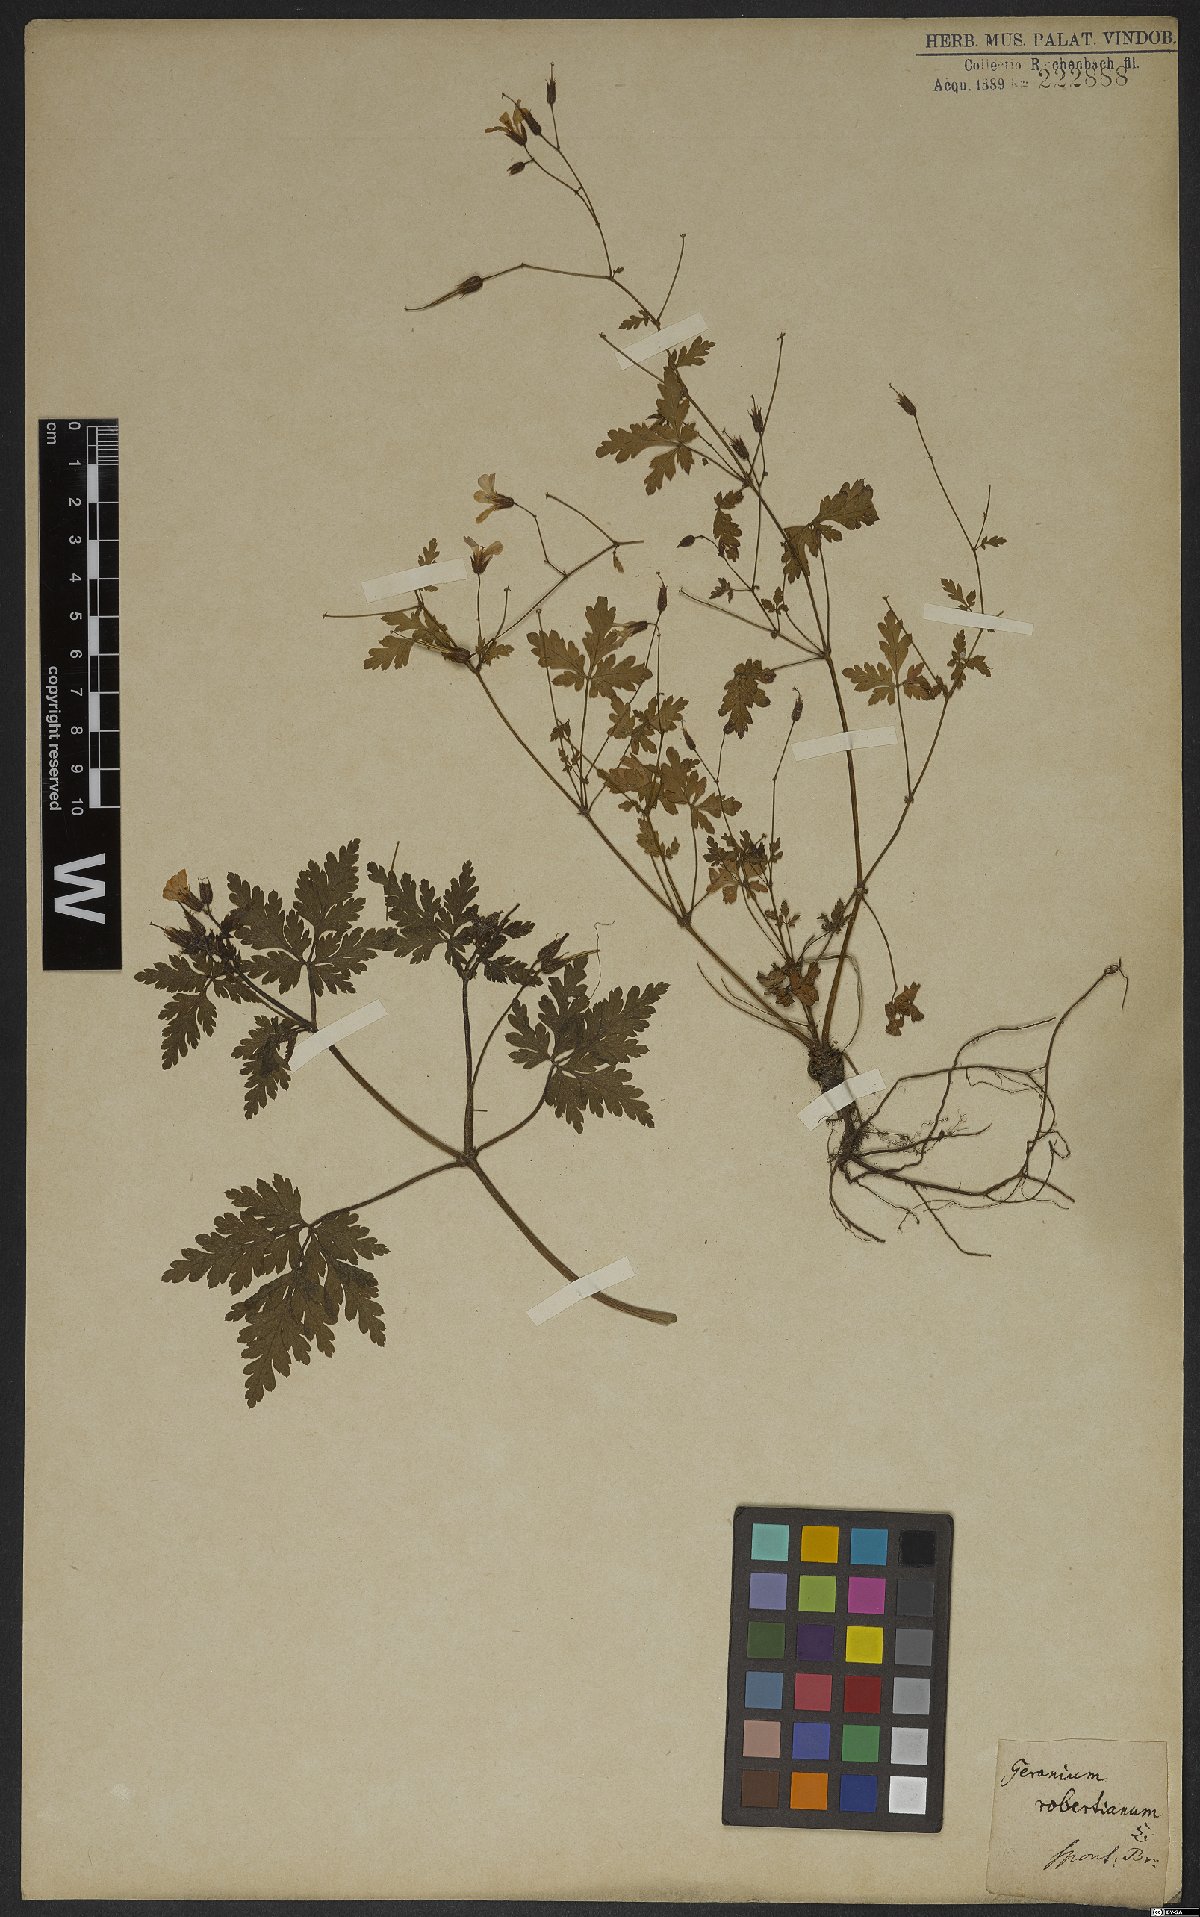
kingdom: Plantae
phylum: Tracheophyta
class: Magnoliopsida
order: Geraniales
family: Geraniaceae
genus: Geranium
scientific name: Geranium robertianum
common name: Herb-robert
